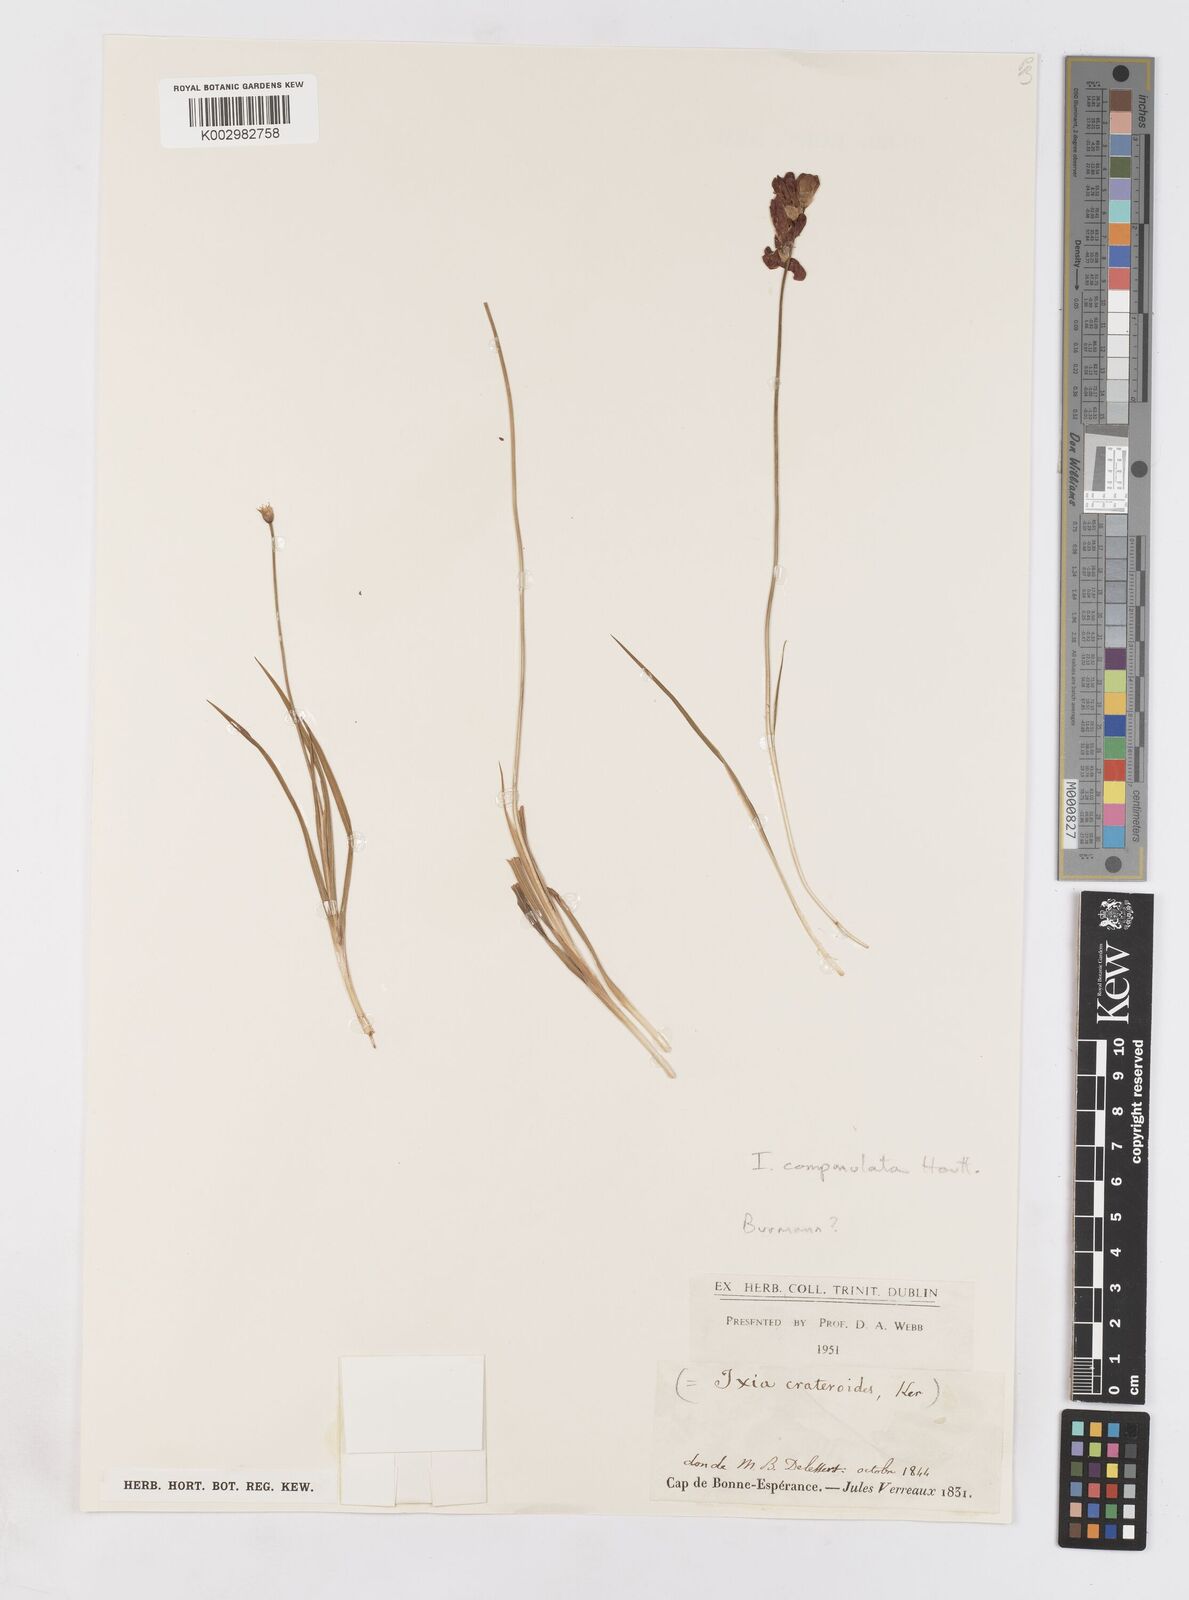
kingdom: Plantae
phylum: Tracheophyta
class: Liliopsida
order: Asparagales
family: Iridaceae
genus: Ixia
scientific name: Ixia campanulata
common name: Red corn-lily
